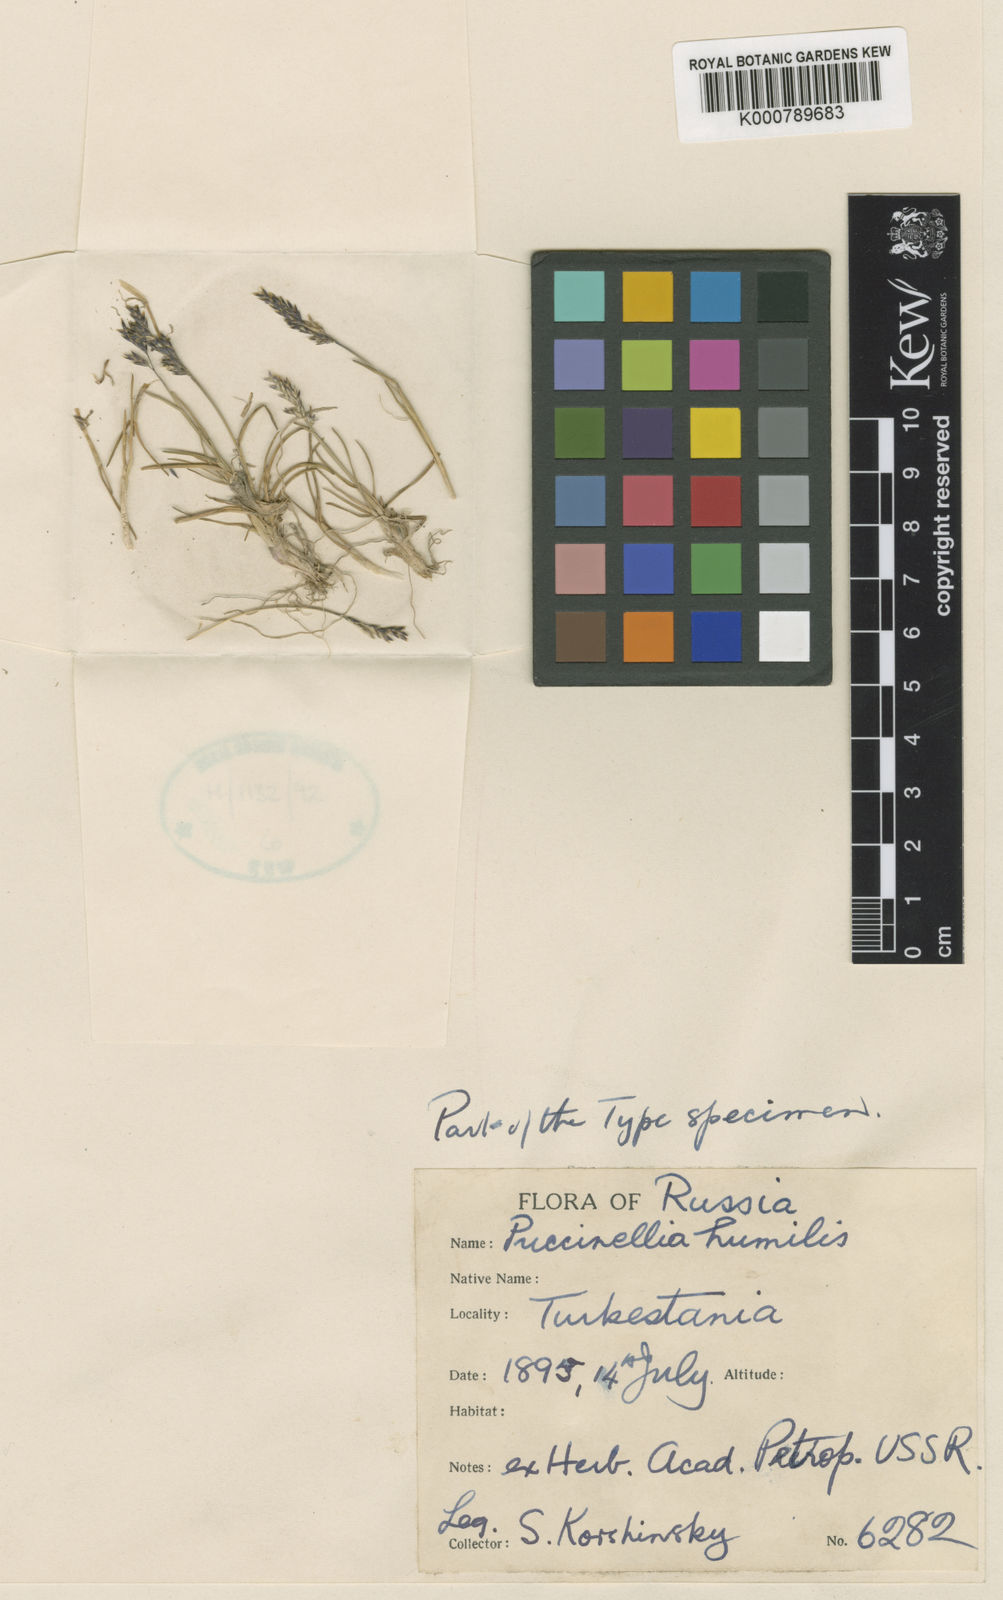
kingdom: Plantae
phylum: Tracheophyta
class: Liliopsida
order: Poales
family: Poaceae
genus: Puccinellia
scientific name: Puccinellia hackeliana
